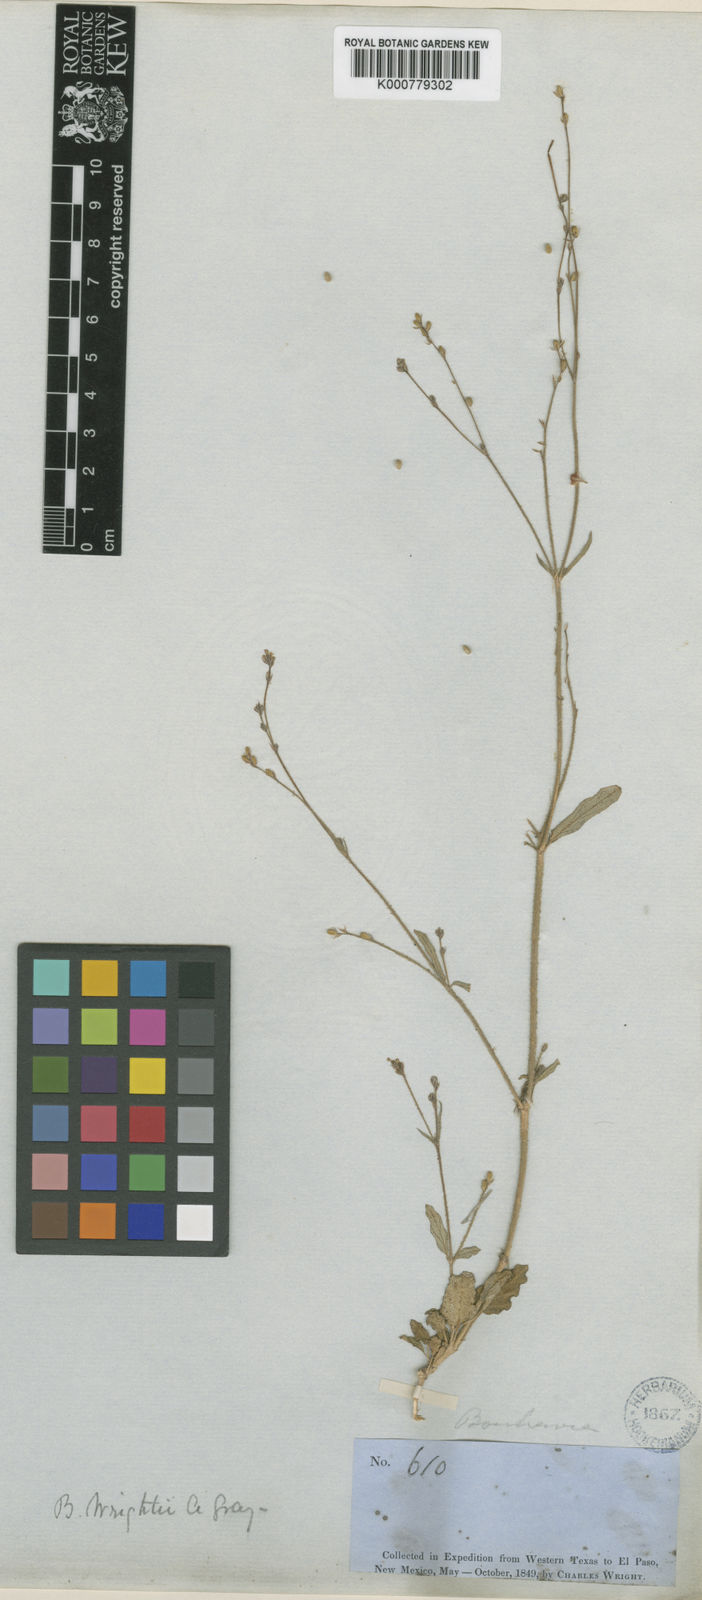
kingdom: Plantae
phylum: Tracheophyta
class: Magnoliopsida
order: Caryophyllales
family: Nyctaginaceae
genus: Boerhavia
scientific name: Boerhavia wrightii
